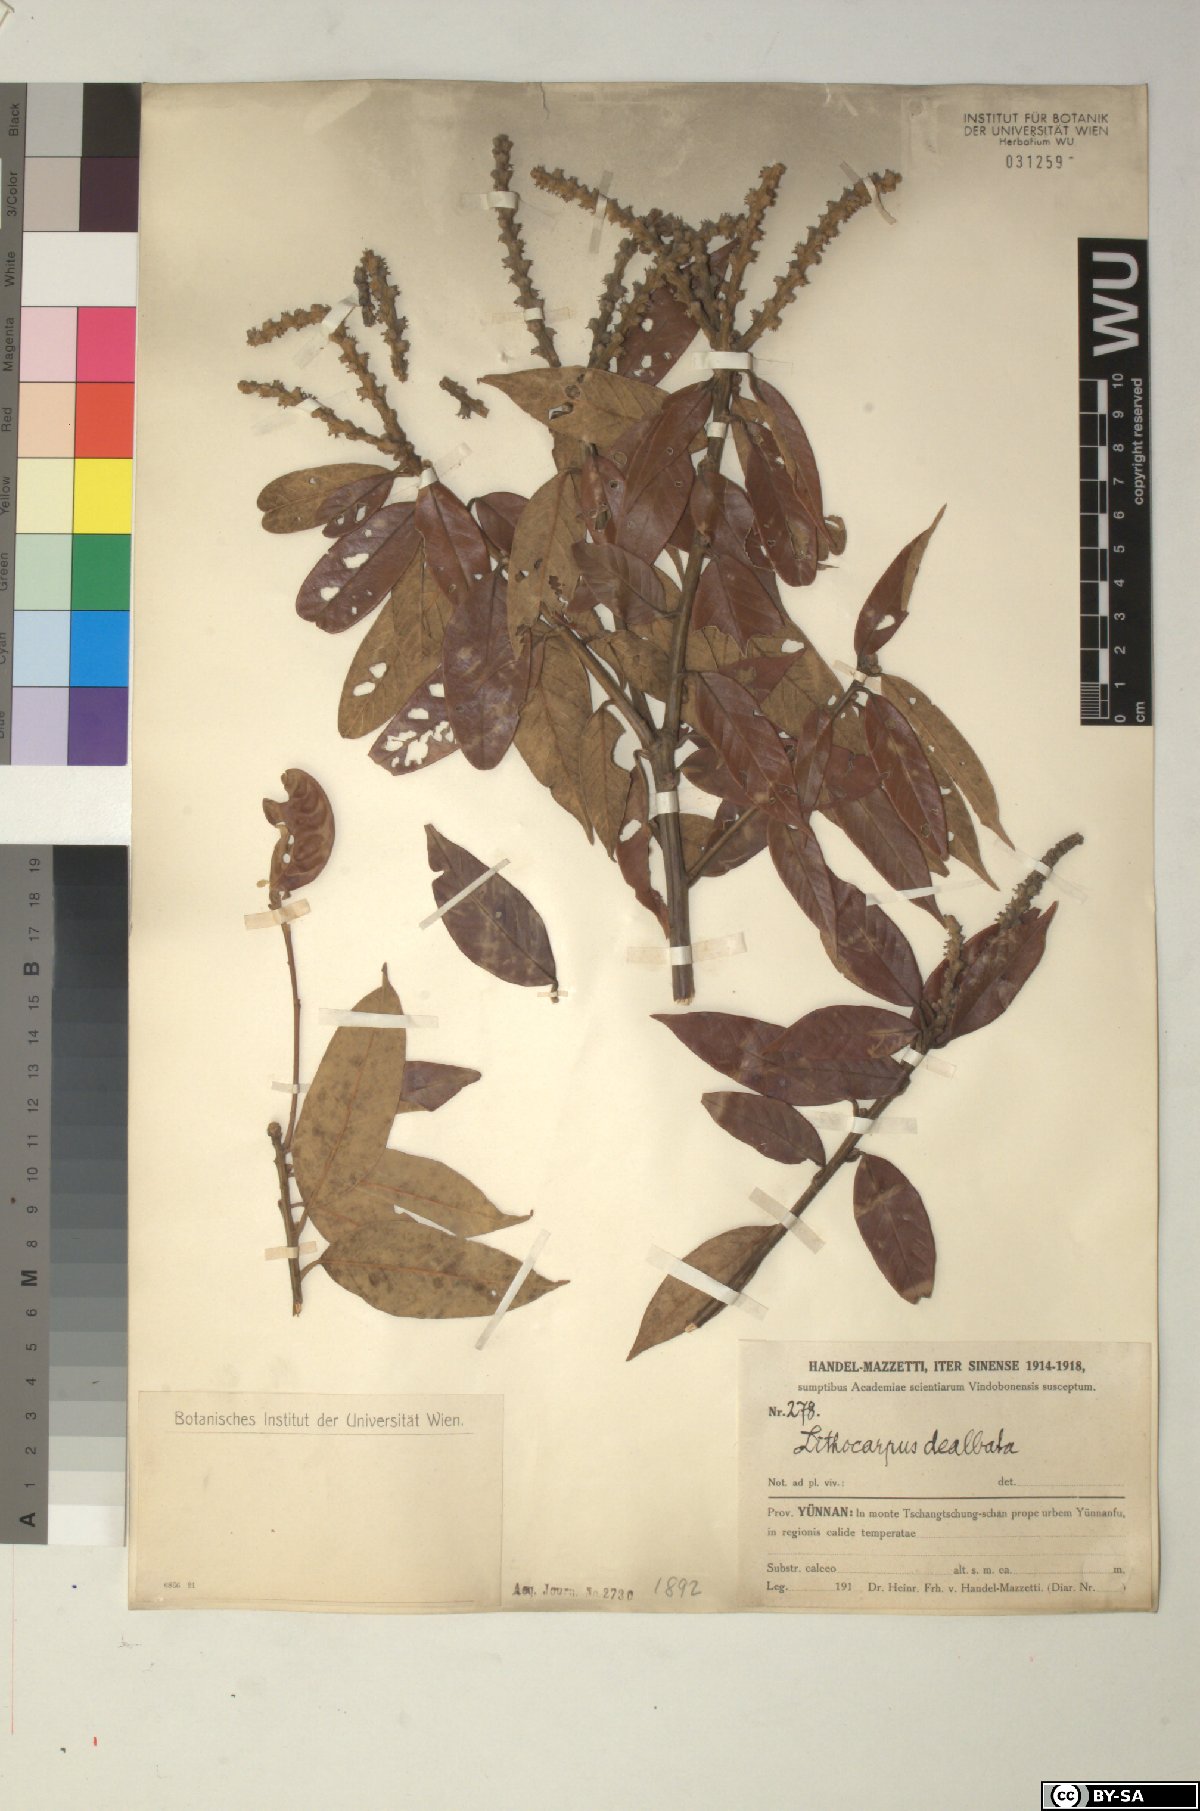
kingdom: Plantae
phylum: Tracheophyta
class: Magnoliopsida
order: Fagales
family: Fagaceae
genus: Lithocarpus
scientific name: Lithocarpus dealbatus
